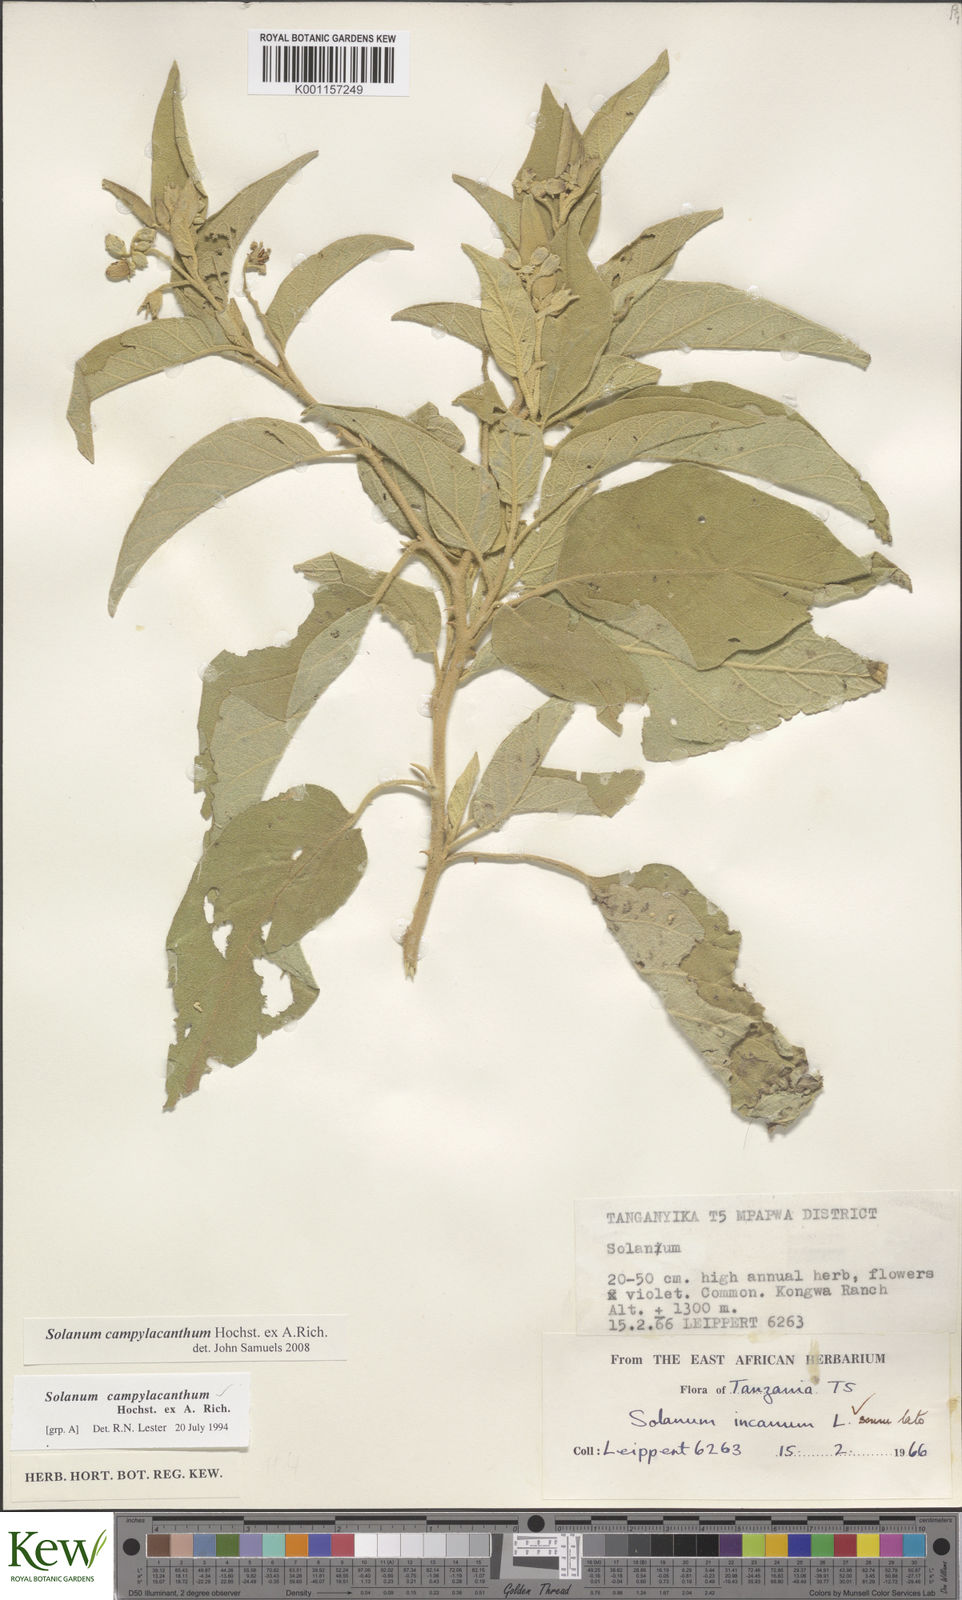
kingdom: Plantae
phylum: Tracheophyta
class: Magnoliopsida
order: Solanales
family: Solanaceae
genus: Solanum
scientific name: Solanum campylacanthum
